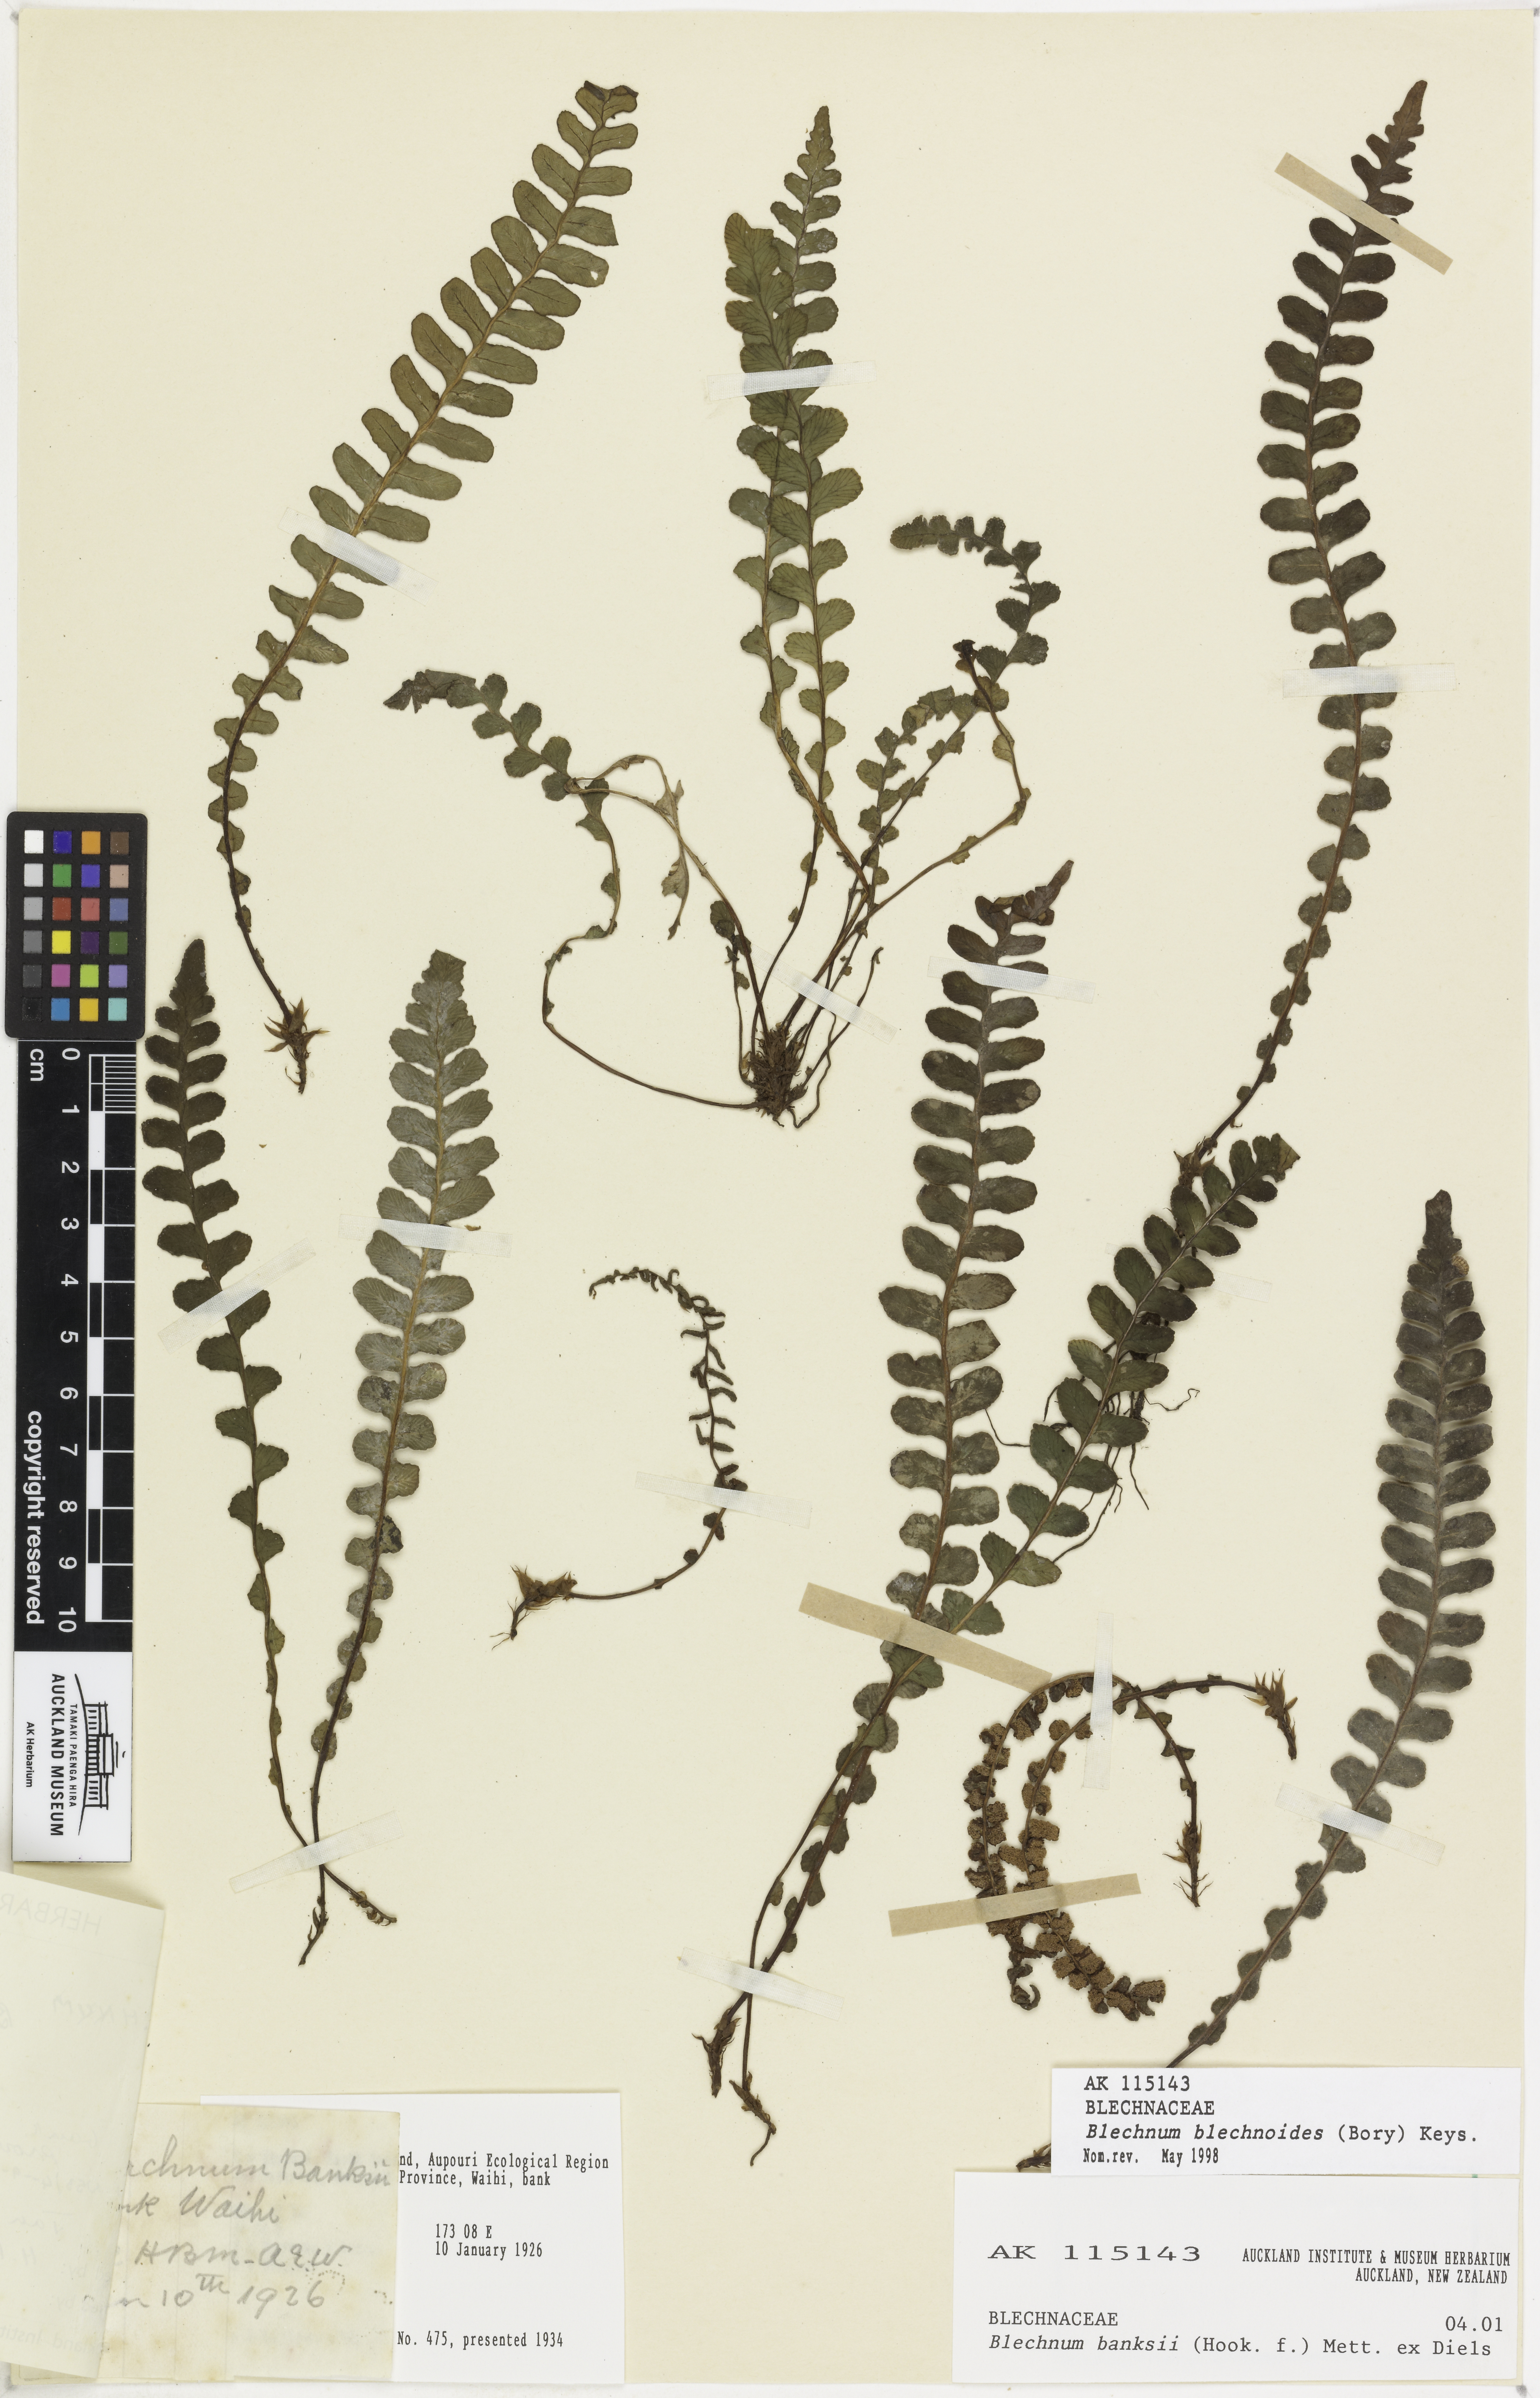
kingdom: Plantae
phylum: Tracheophyta
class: Polypodiopsida
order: Polypodiales
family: Blechnaceae
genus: Austroblechnum
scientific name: Austroblechnum leyboldtianum
